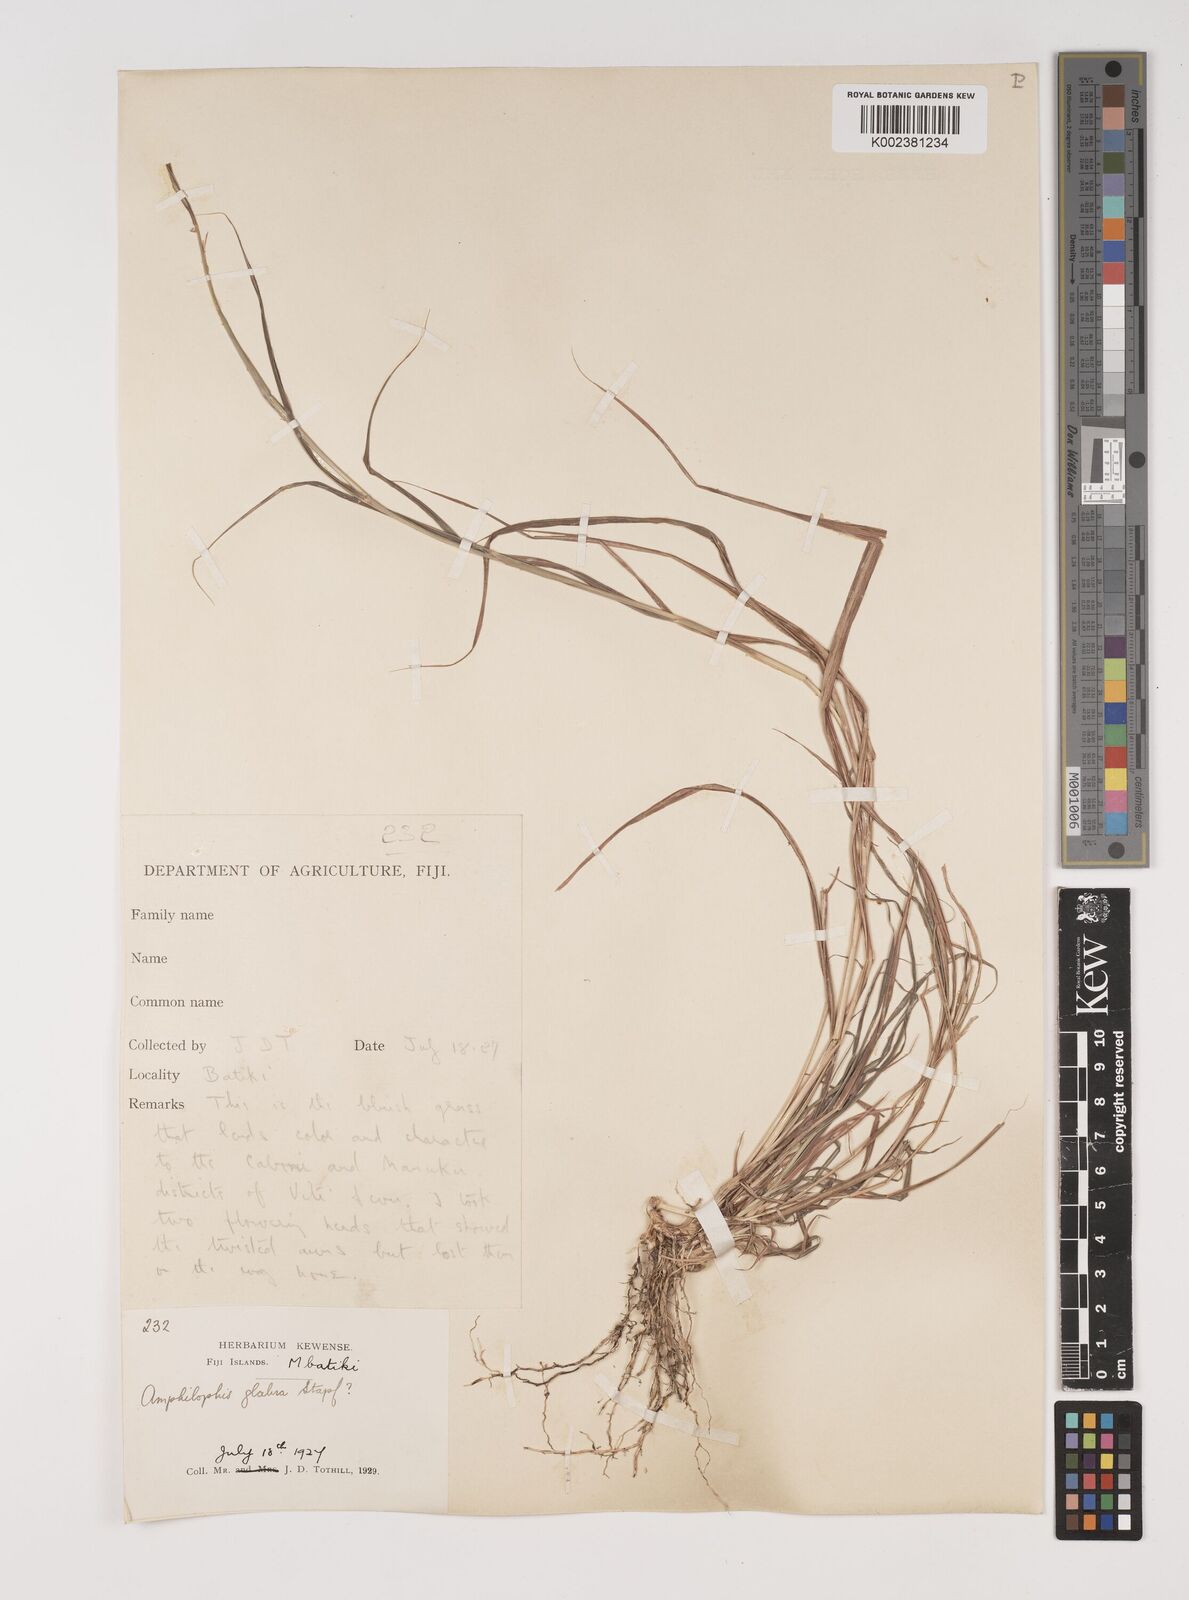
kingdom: Plantae
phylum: Tracheophyta
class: Liliopsida
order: Poales
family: Poaceae
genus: Bothriochloa
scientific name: Bothriochloa bladhii
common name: Caucasian bluestem
